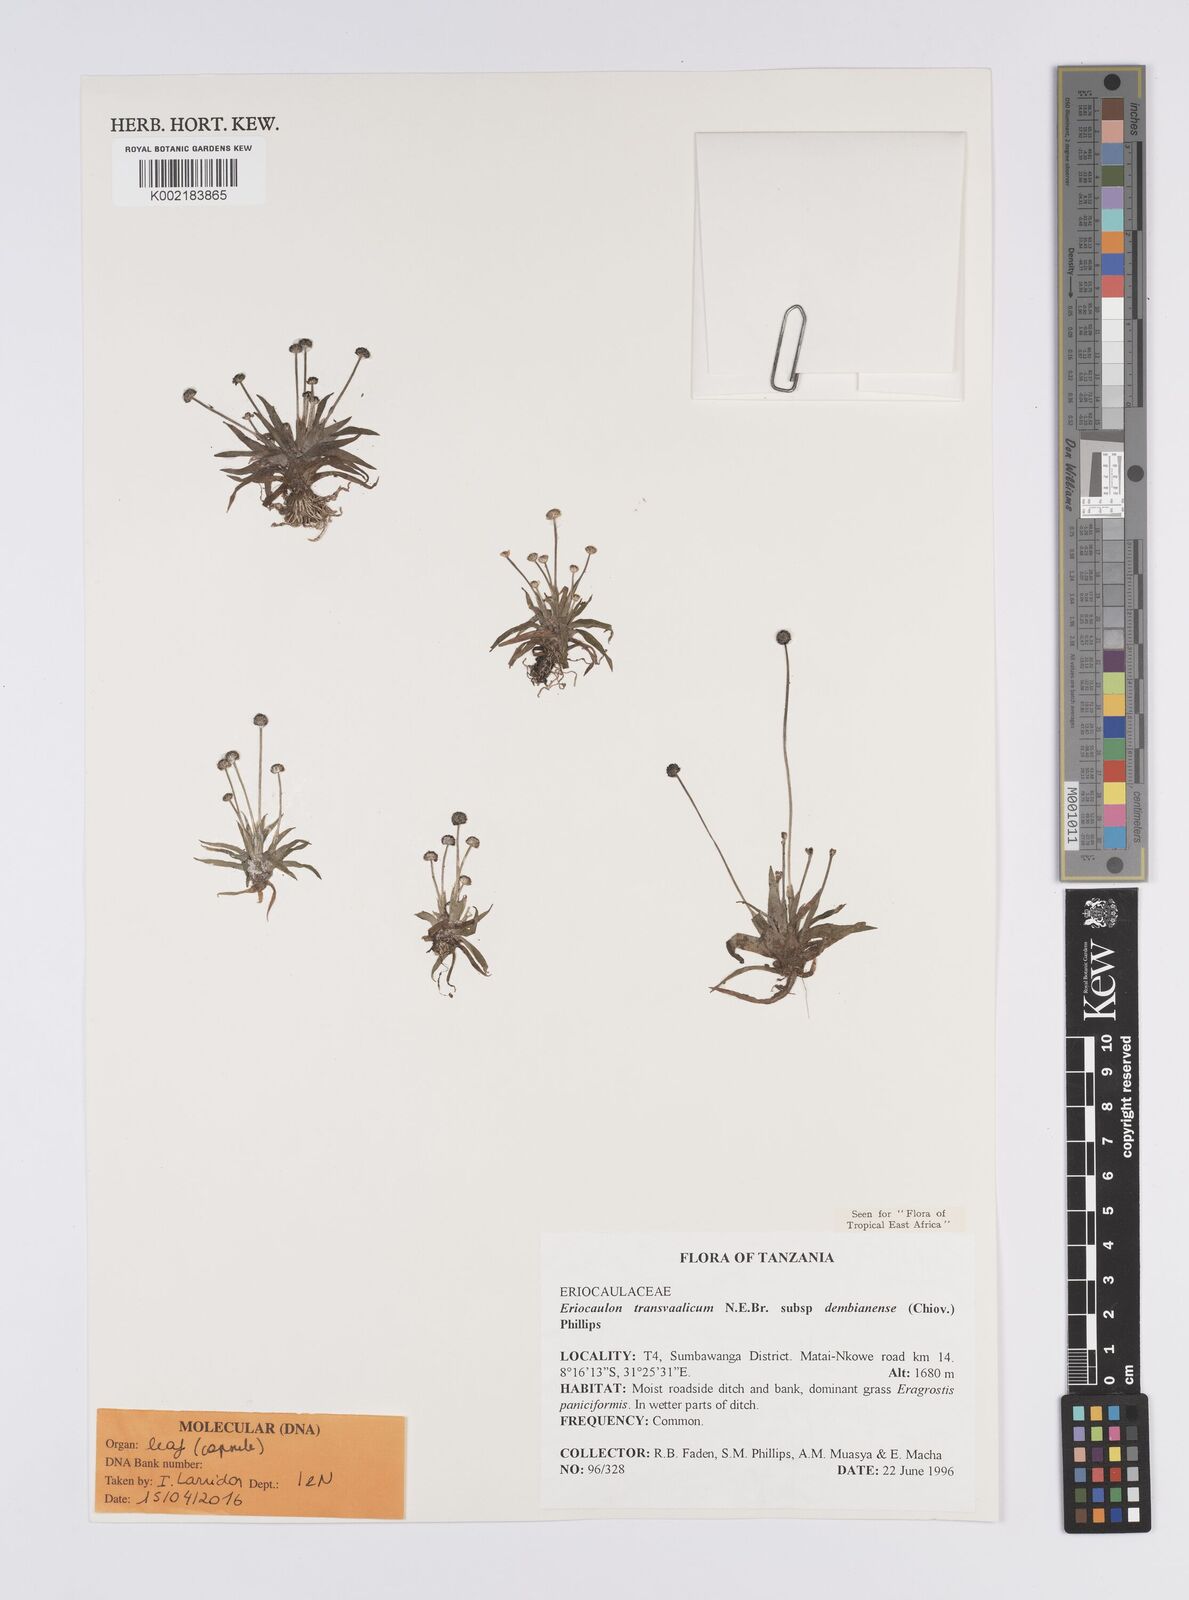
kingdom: Plantae
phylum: Tracheophyta
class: Liliopsida
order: Poales
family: Eriocaulaceae
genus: Eriocaulon
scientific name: Eriocaulon transvaalicum
